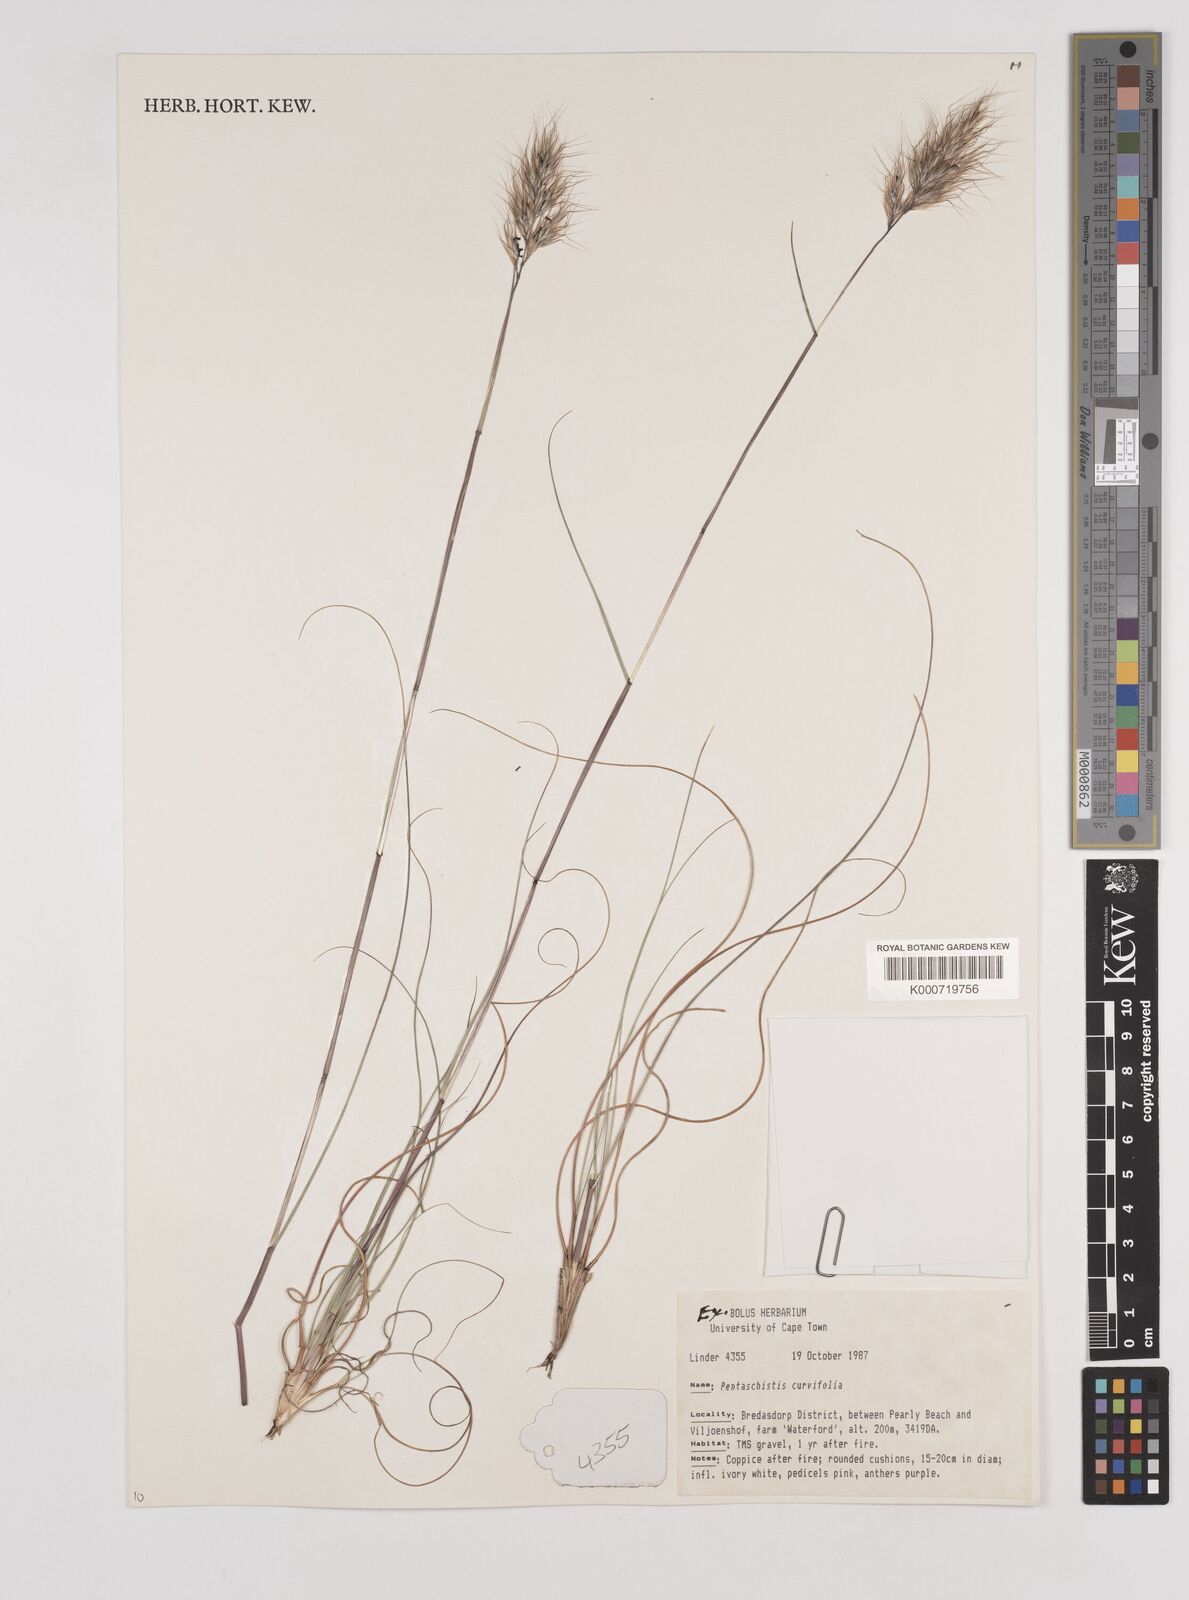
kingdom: Plantae
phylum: Tracheophyta
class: Liliopsida
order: Poales
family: Poaceae
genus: Pentameris
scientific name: Pentameris curvifolia
